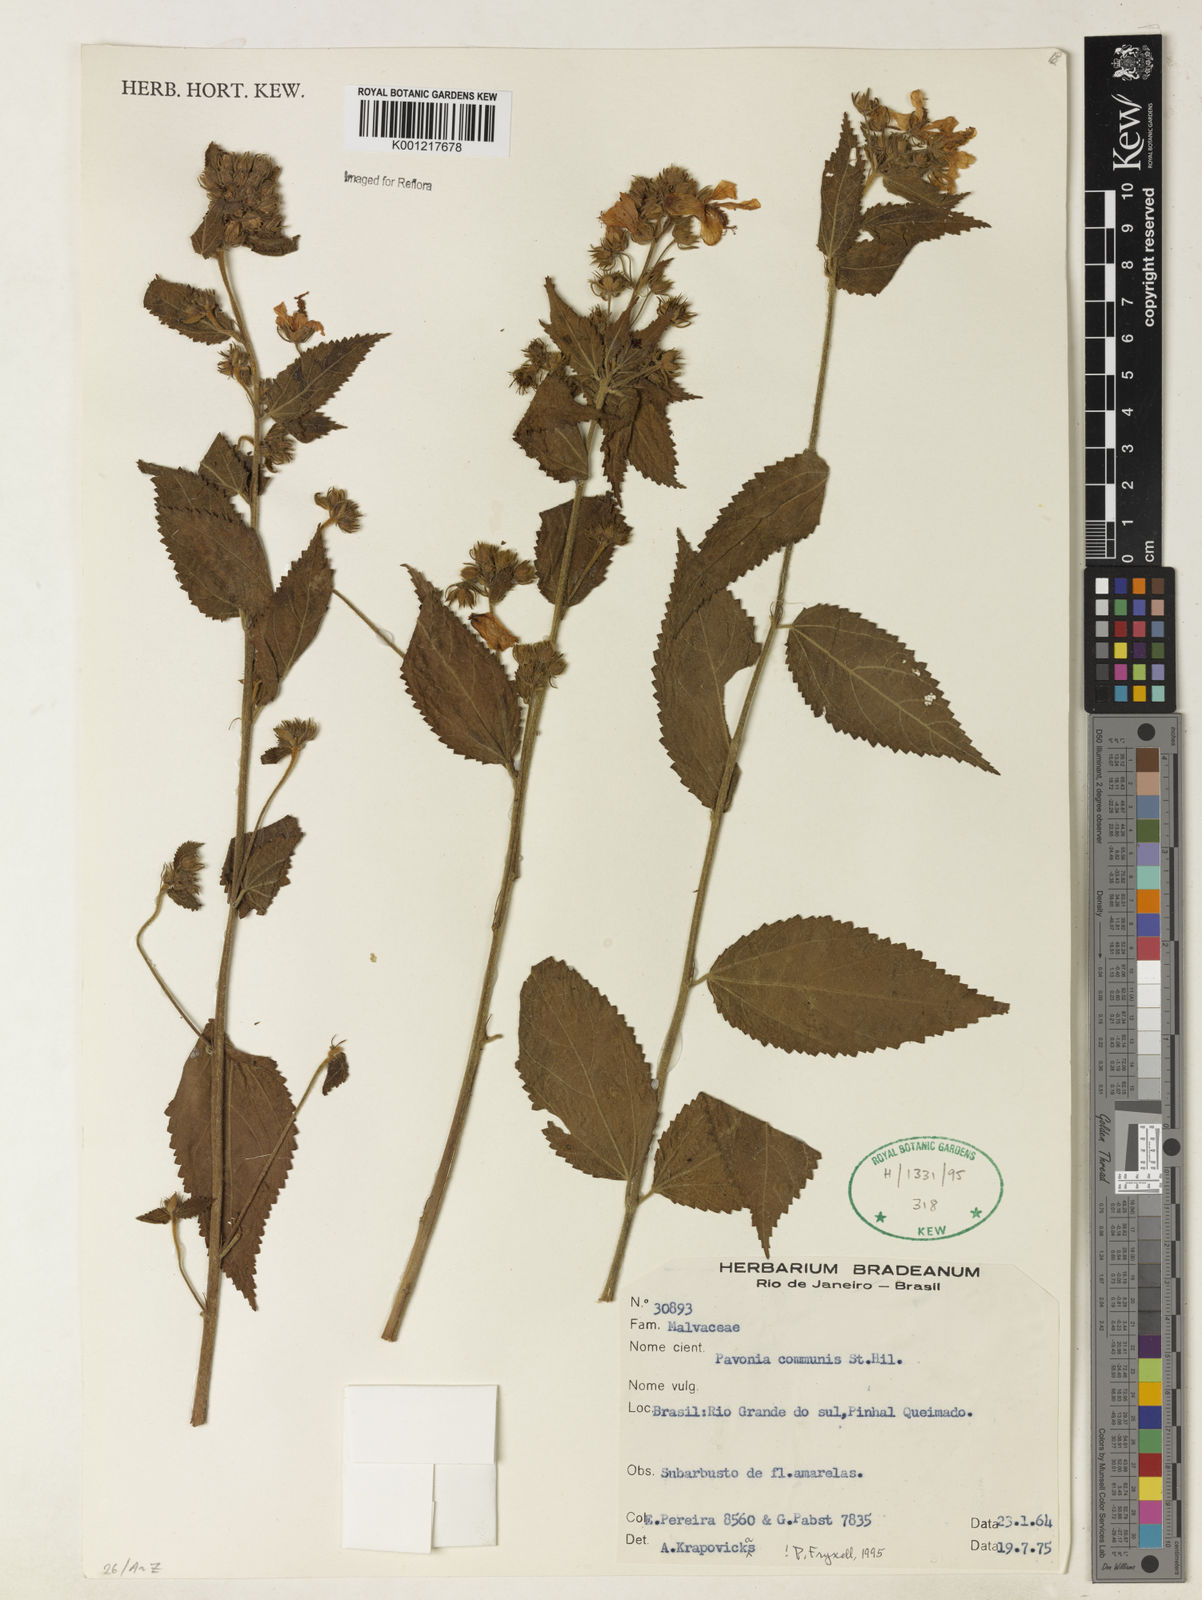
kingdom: Plantae
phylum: Tracheophyta
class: Magnoliopsida
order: Malvales
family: Malvaceae
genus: Pavonia
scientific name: Pavonia communis
